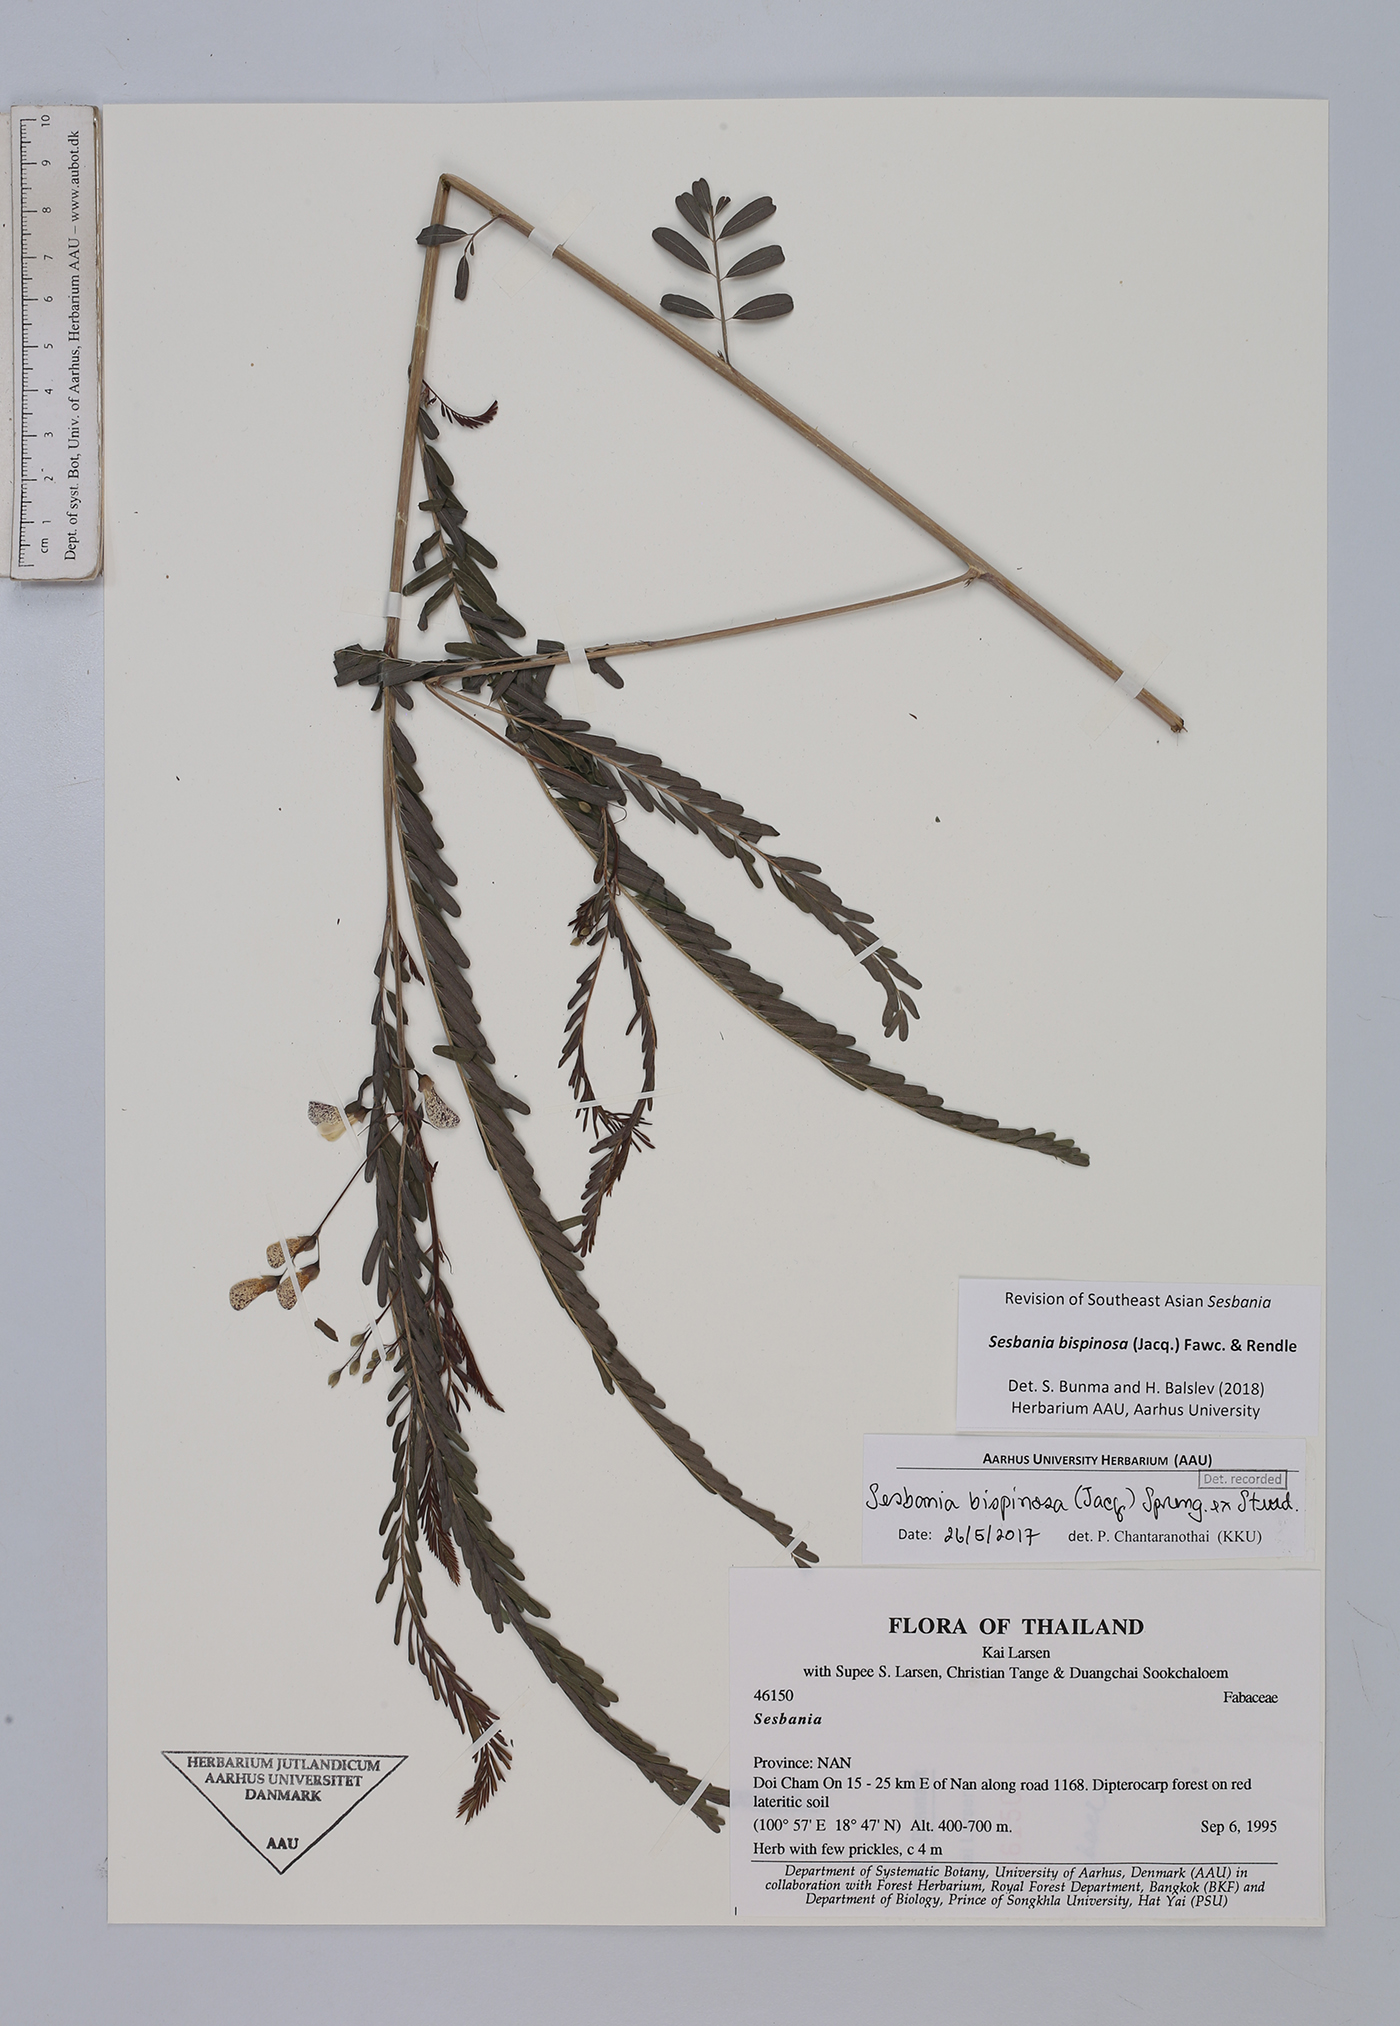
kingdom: Plantae
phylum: Tracheophyta
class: Magnoliopsida
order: Fabales
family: Fabaceae
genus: Sesbania
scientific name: Sesbania bispinosa
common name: Sesbania pea
